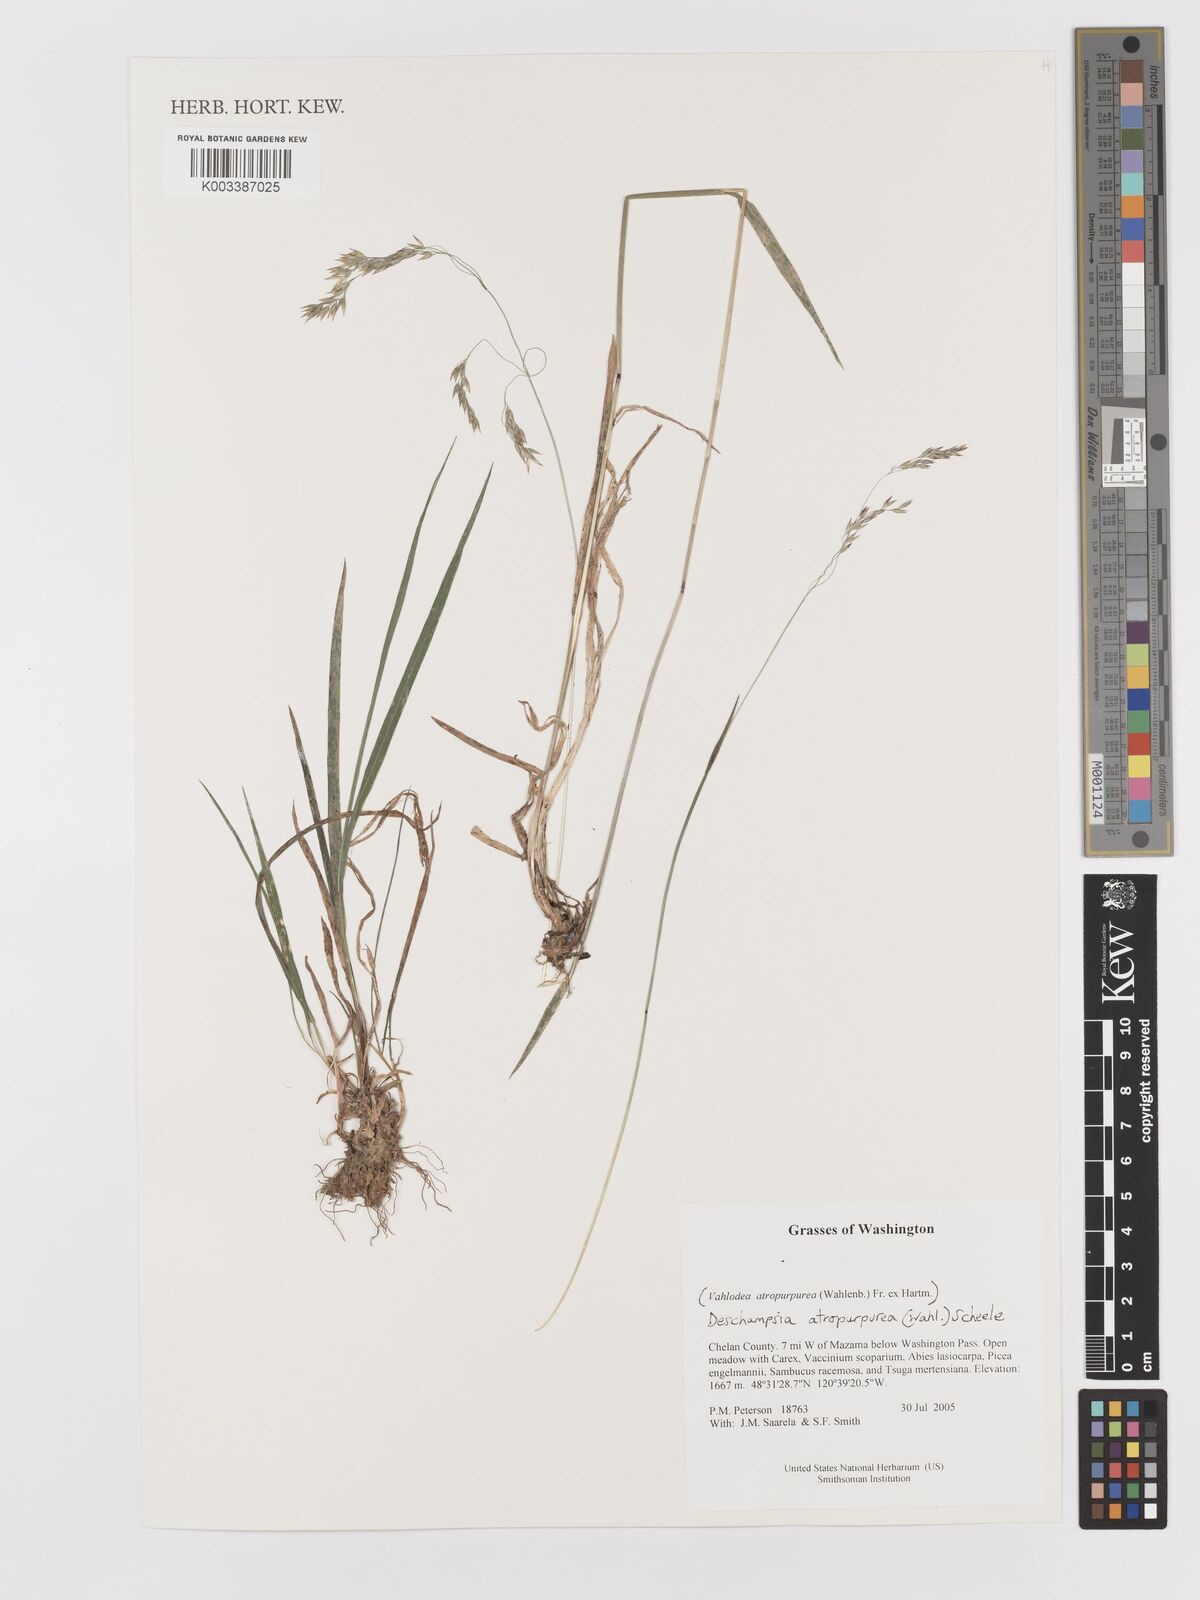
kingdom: Plantae
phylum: Tracheophyta
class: Liliopsida
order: Poales
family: Poaceae
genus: Vahlodea
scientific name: Vahlodea atropurpurea
